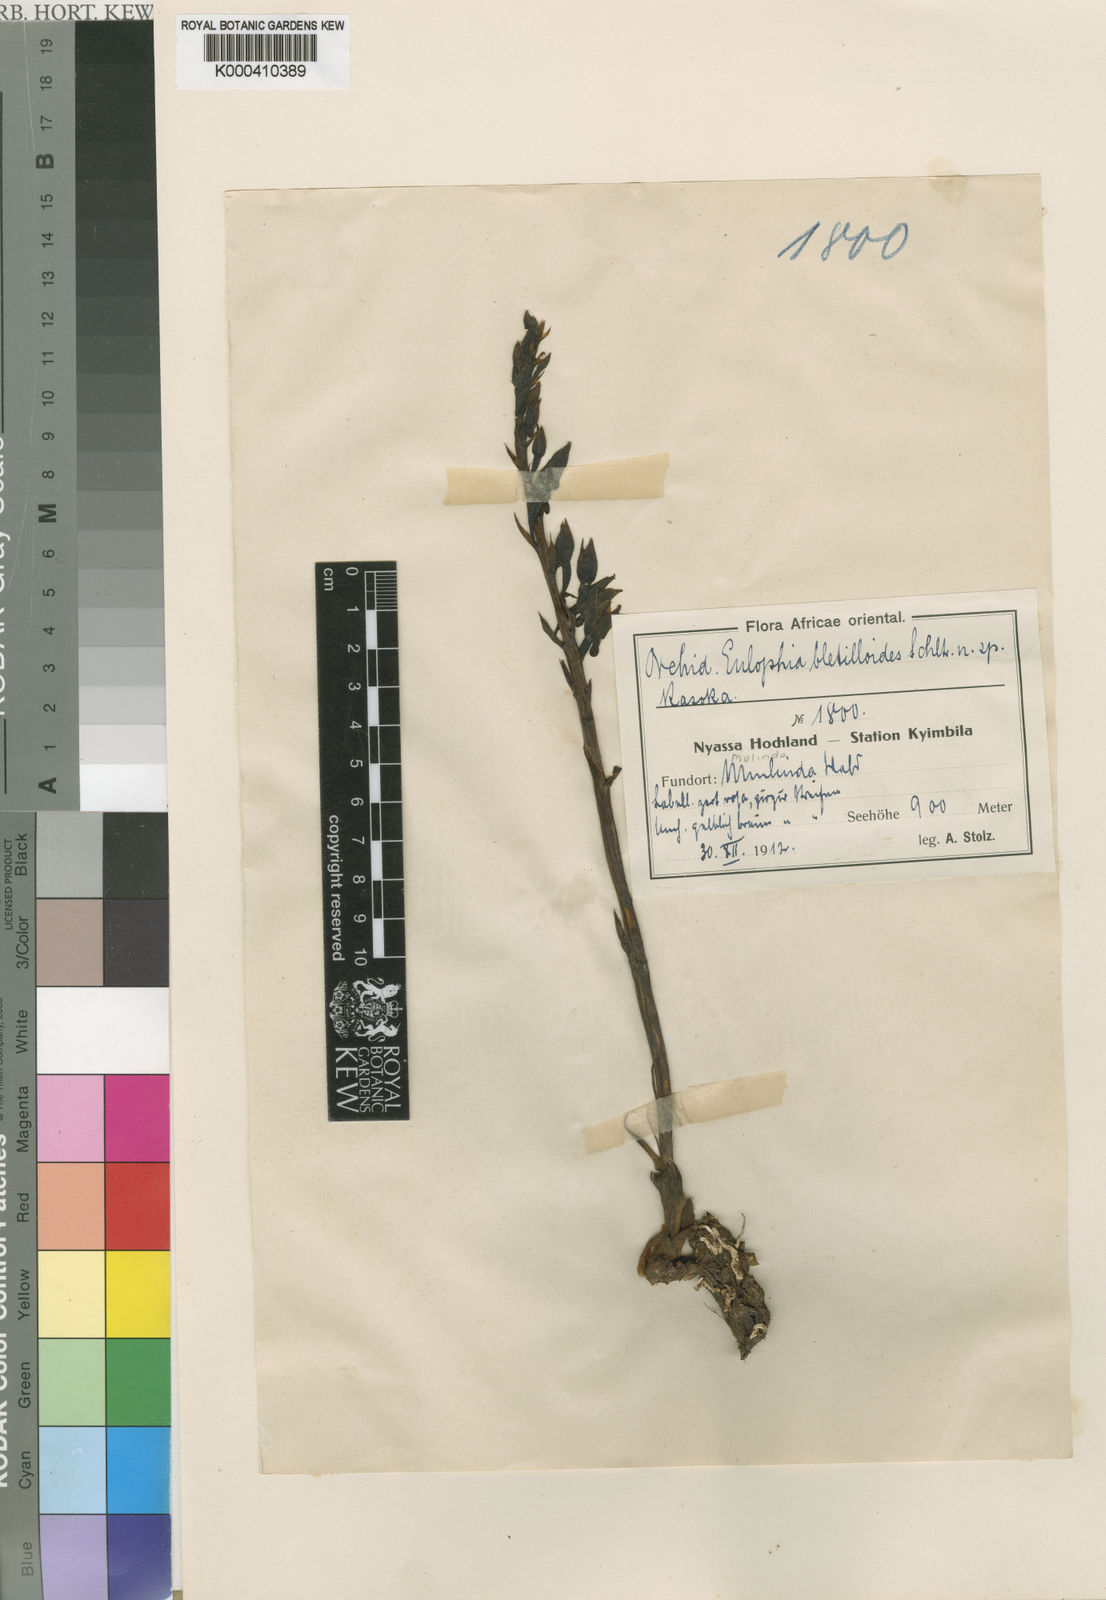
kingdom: Plantae
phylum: Tracheophyta
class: Liliopsida
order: Asparagales
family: Orchidaceae
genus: Eulophia
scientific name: Eulophia nyasae
